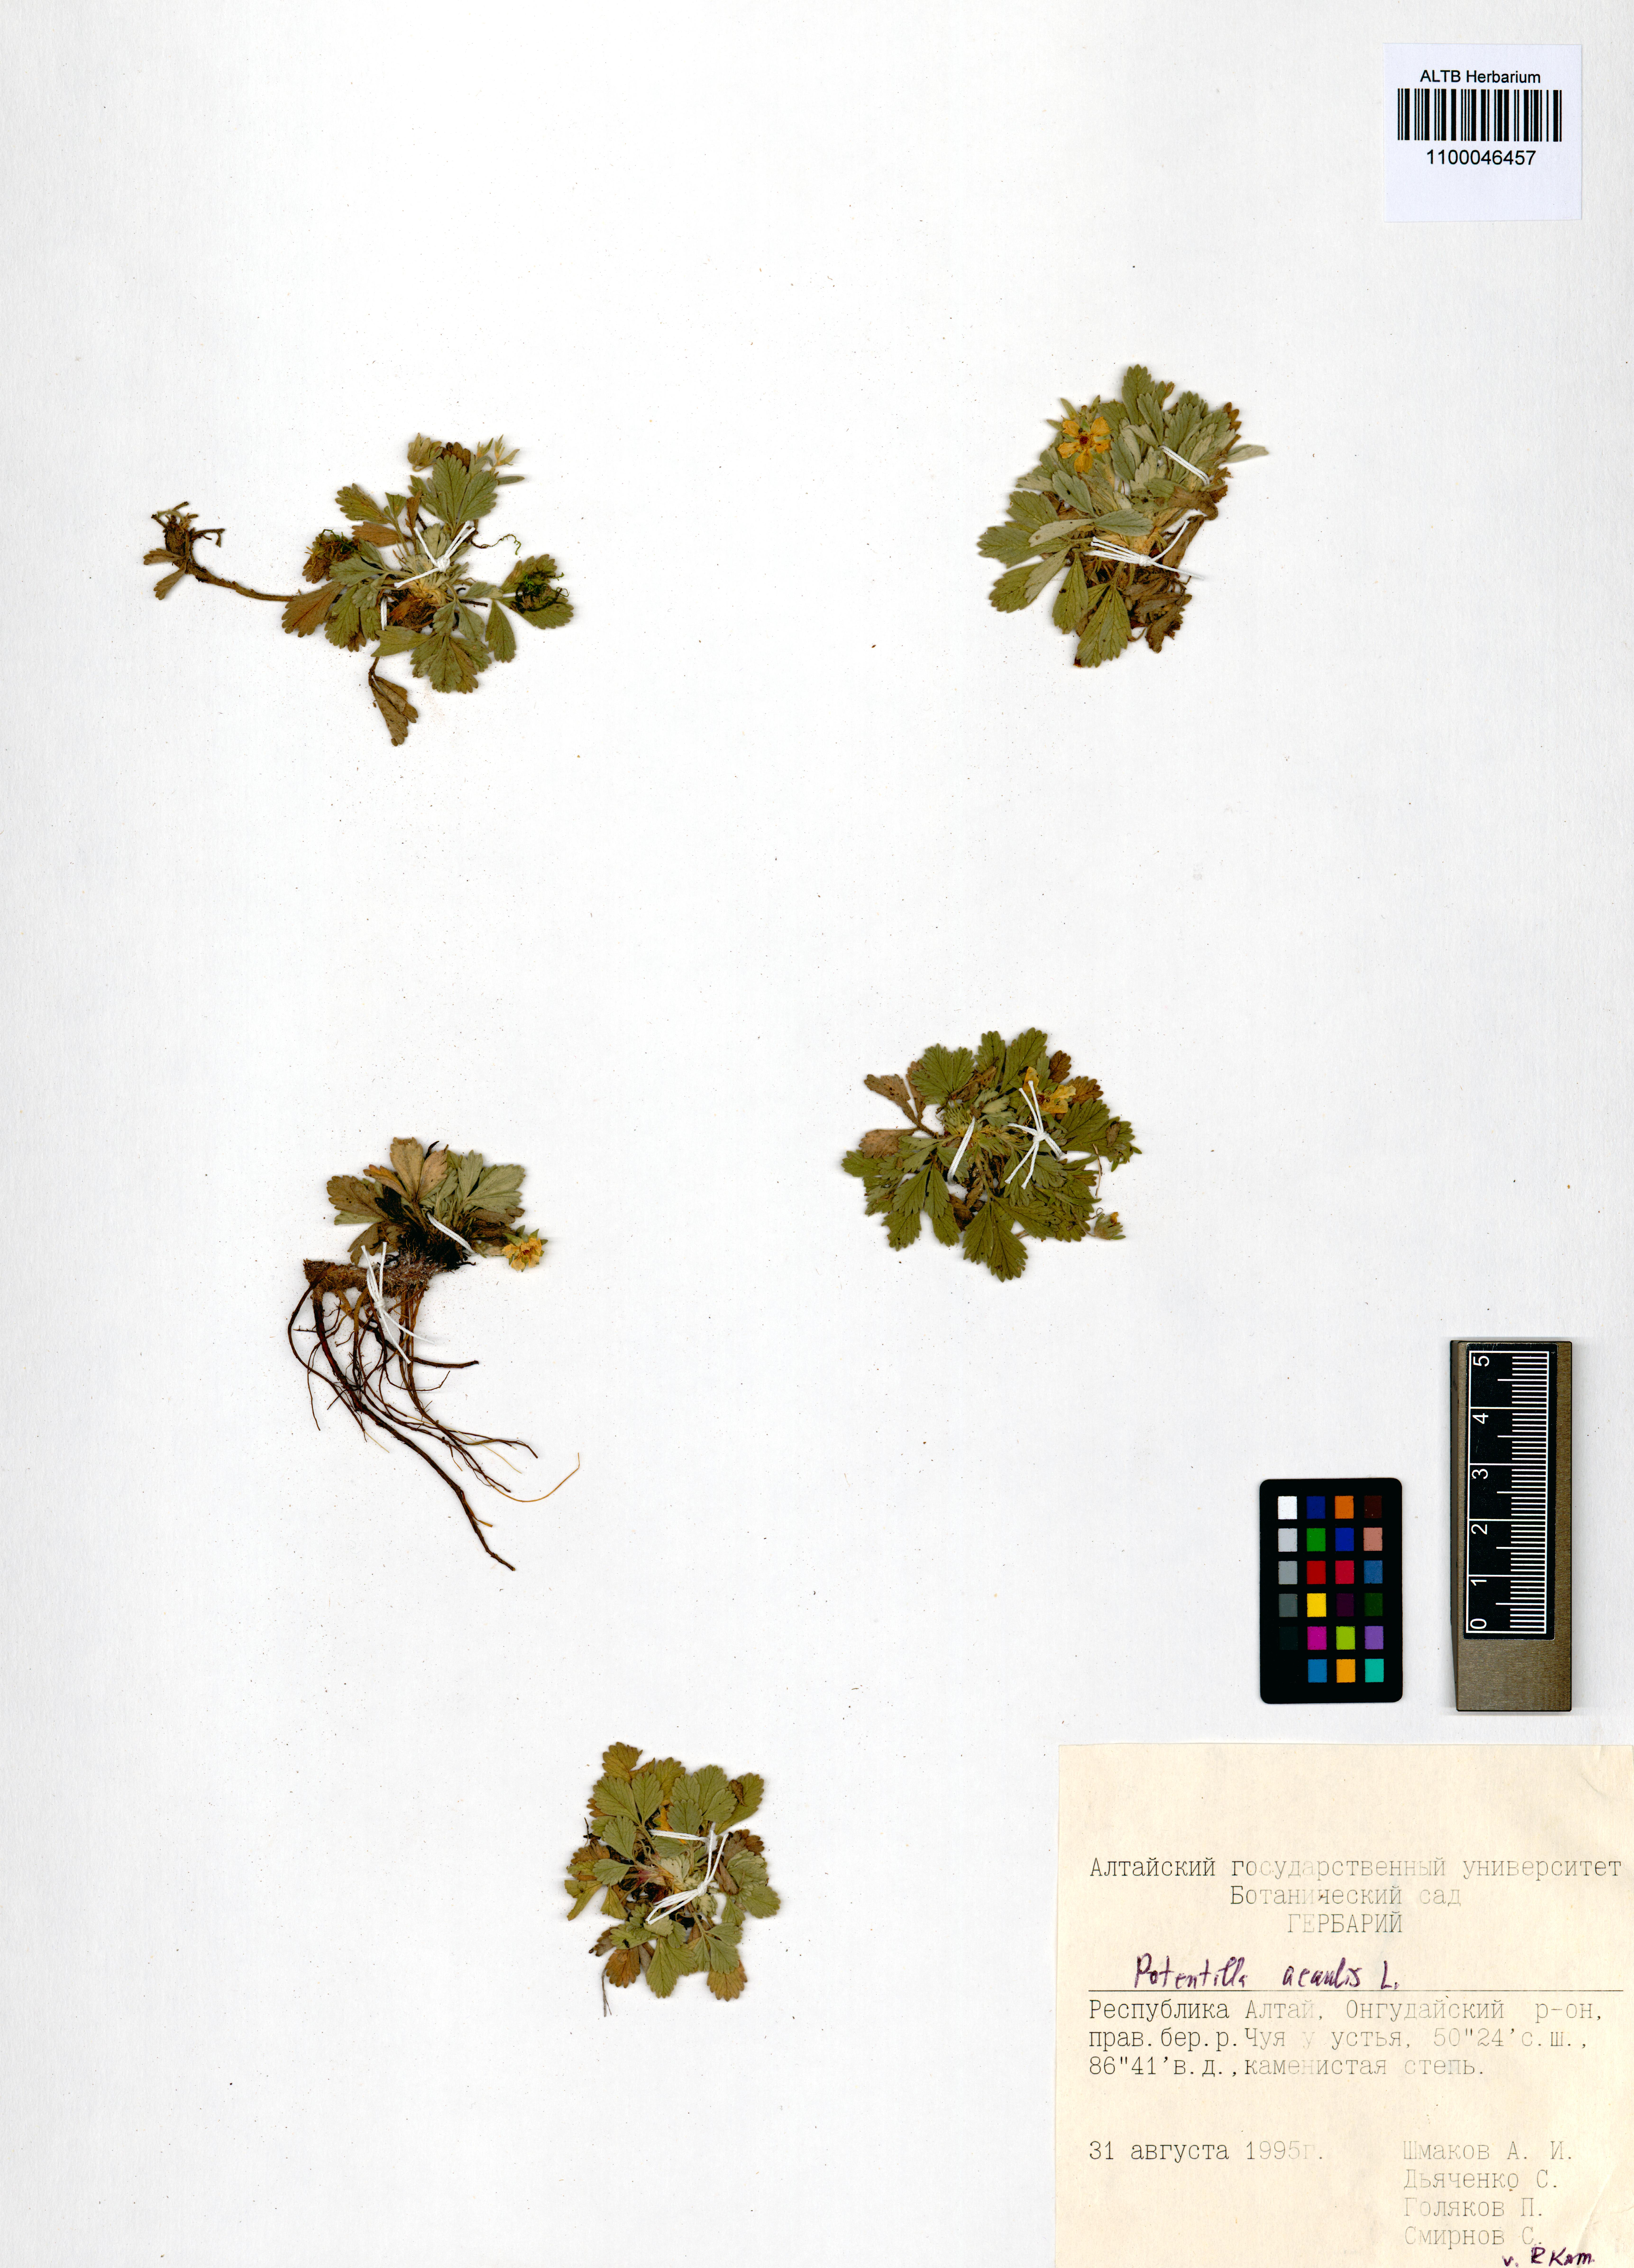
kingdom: Plantae
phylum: Tracheophyta
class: Magnoliopsida
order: Rosales
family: Rosaceae
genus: Potentilla
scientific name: Potentilla acaulis
